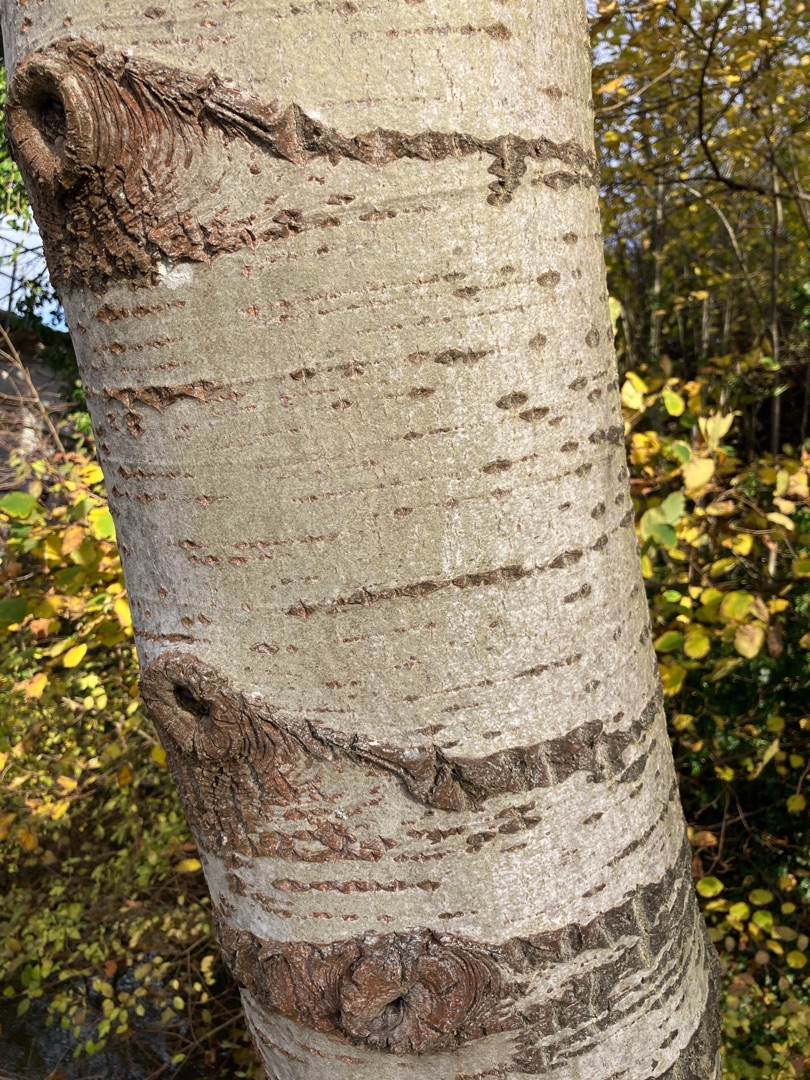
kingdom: Plantae
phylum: Tracheophyta
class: Magnoliopsida
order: Malpighiales
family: Salicaceae
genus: Populus
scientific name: Populus tremula
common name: Bævreasp
